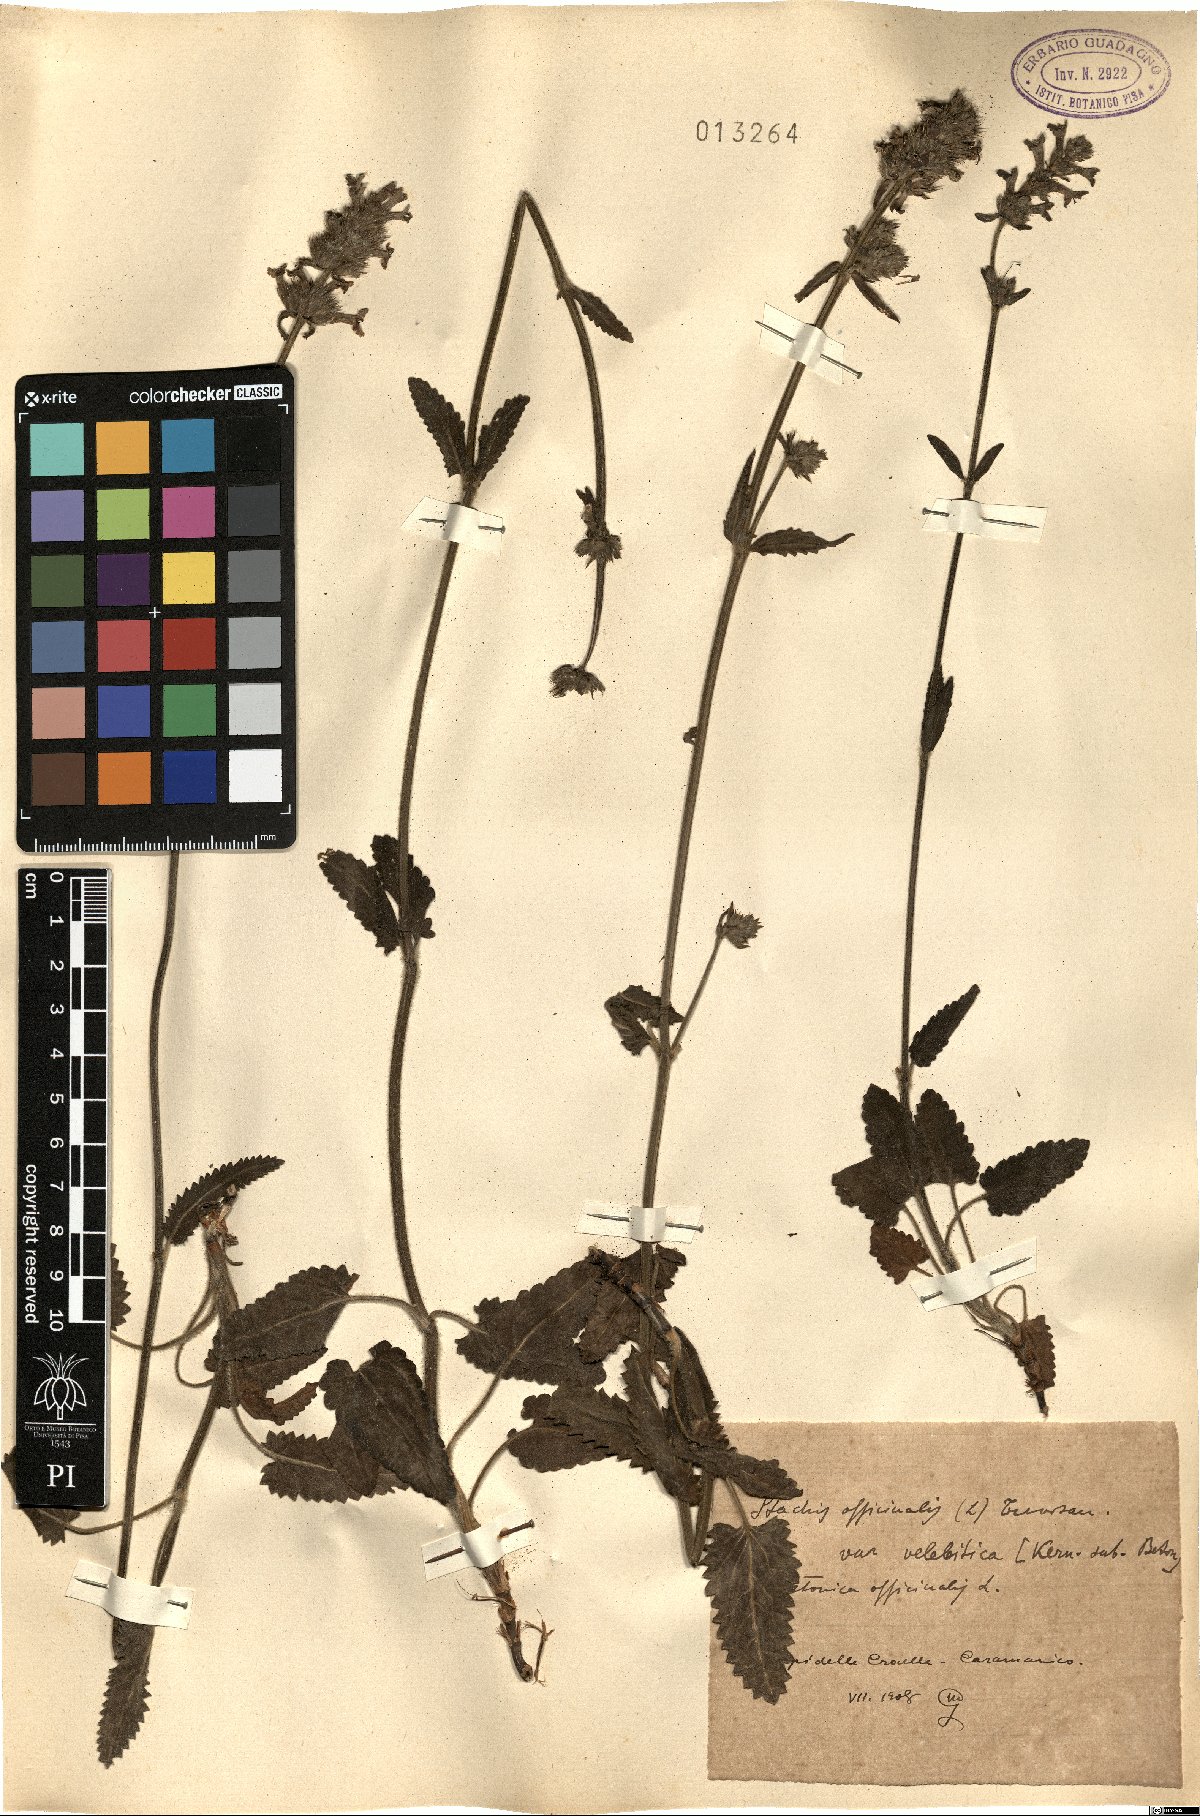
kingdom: Plantae
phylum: Tracheophyta
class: Magnoliopsida
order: Lamiales
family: Lamiaceae
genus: Betonica
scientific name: Betonica officinalis
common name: Bishop's-wort
